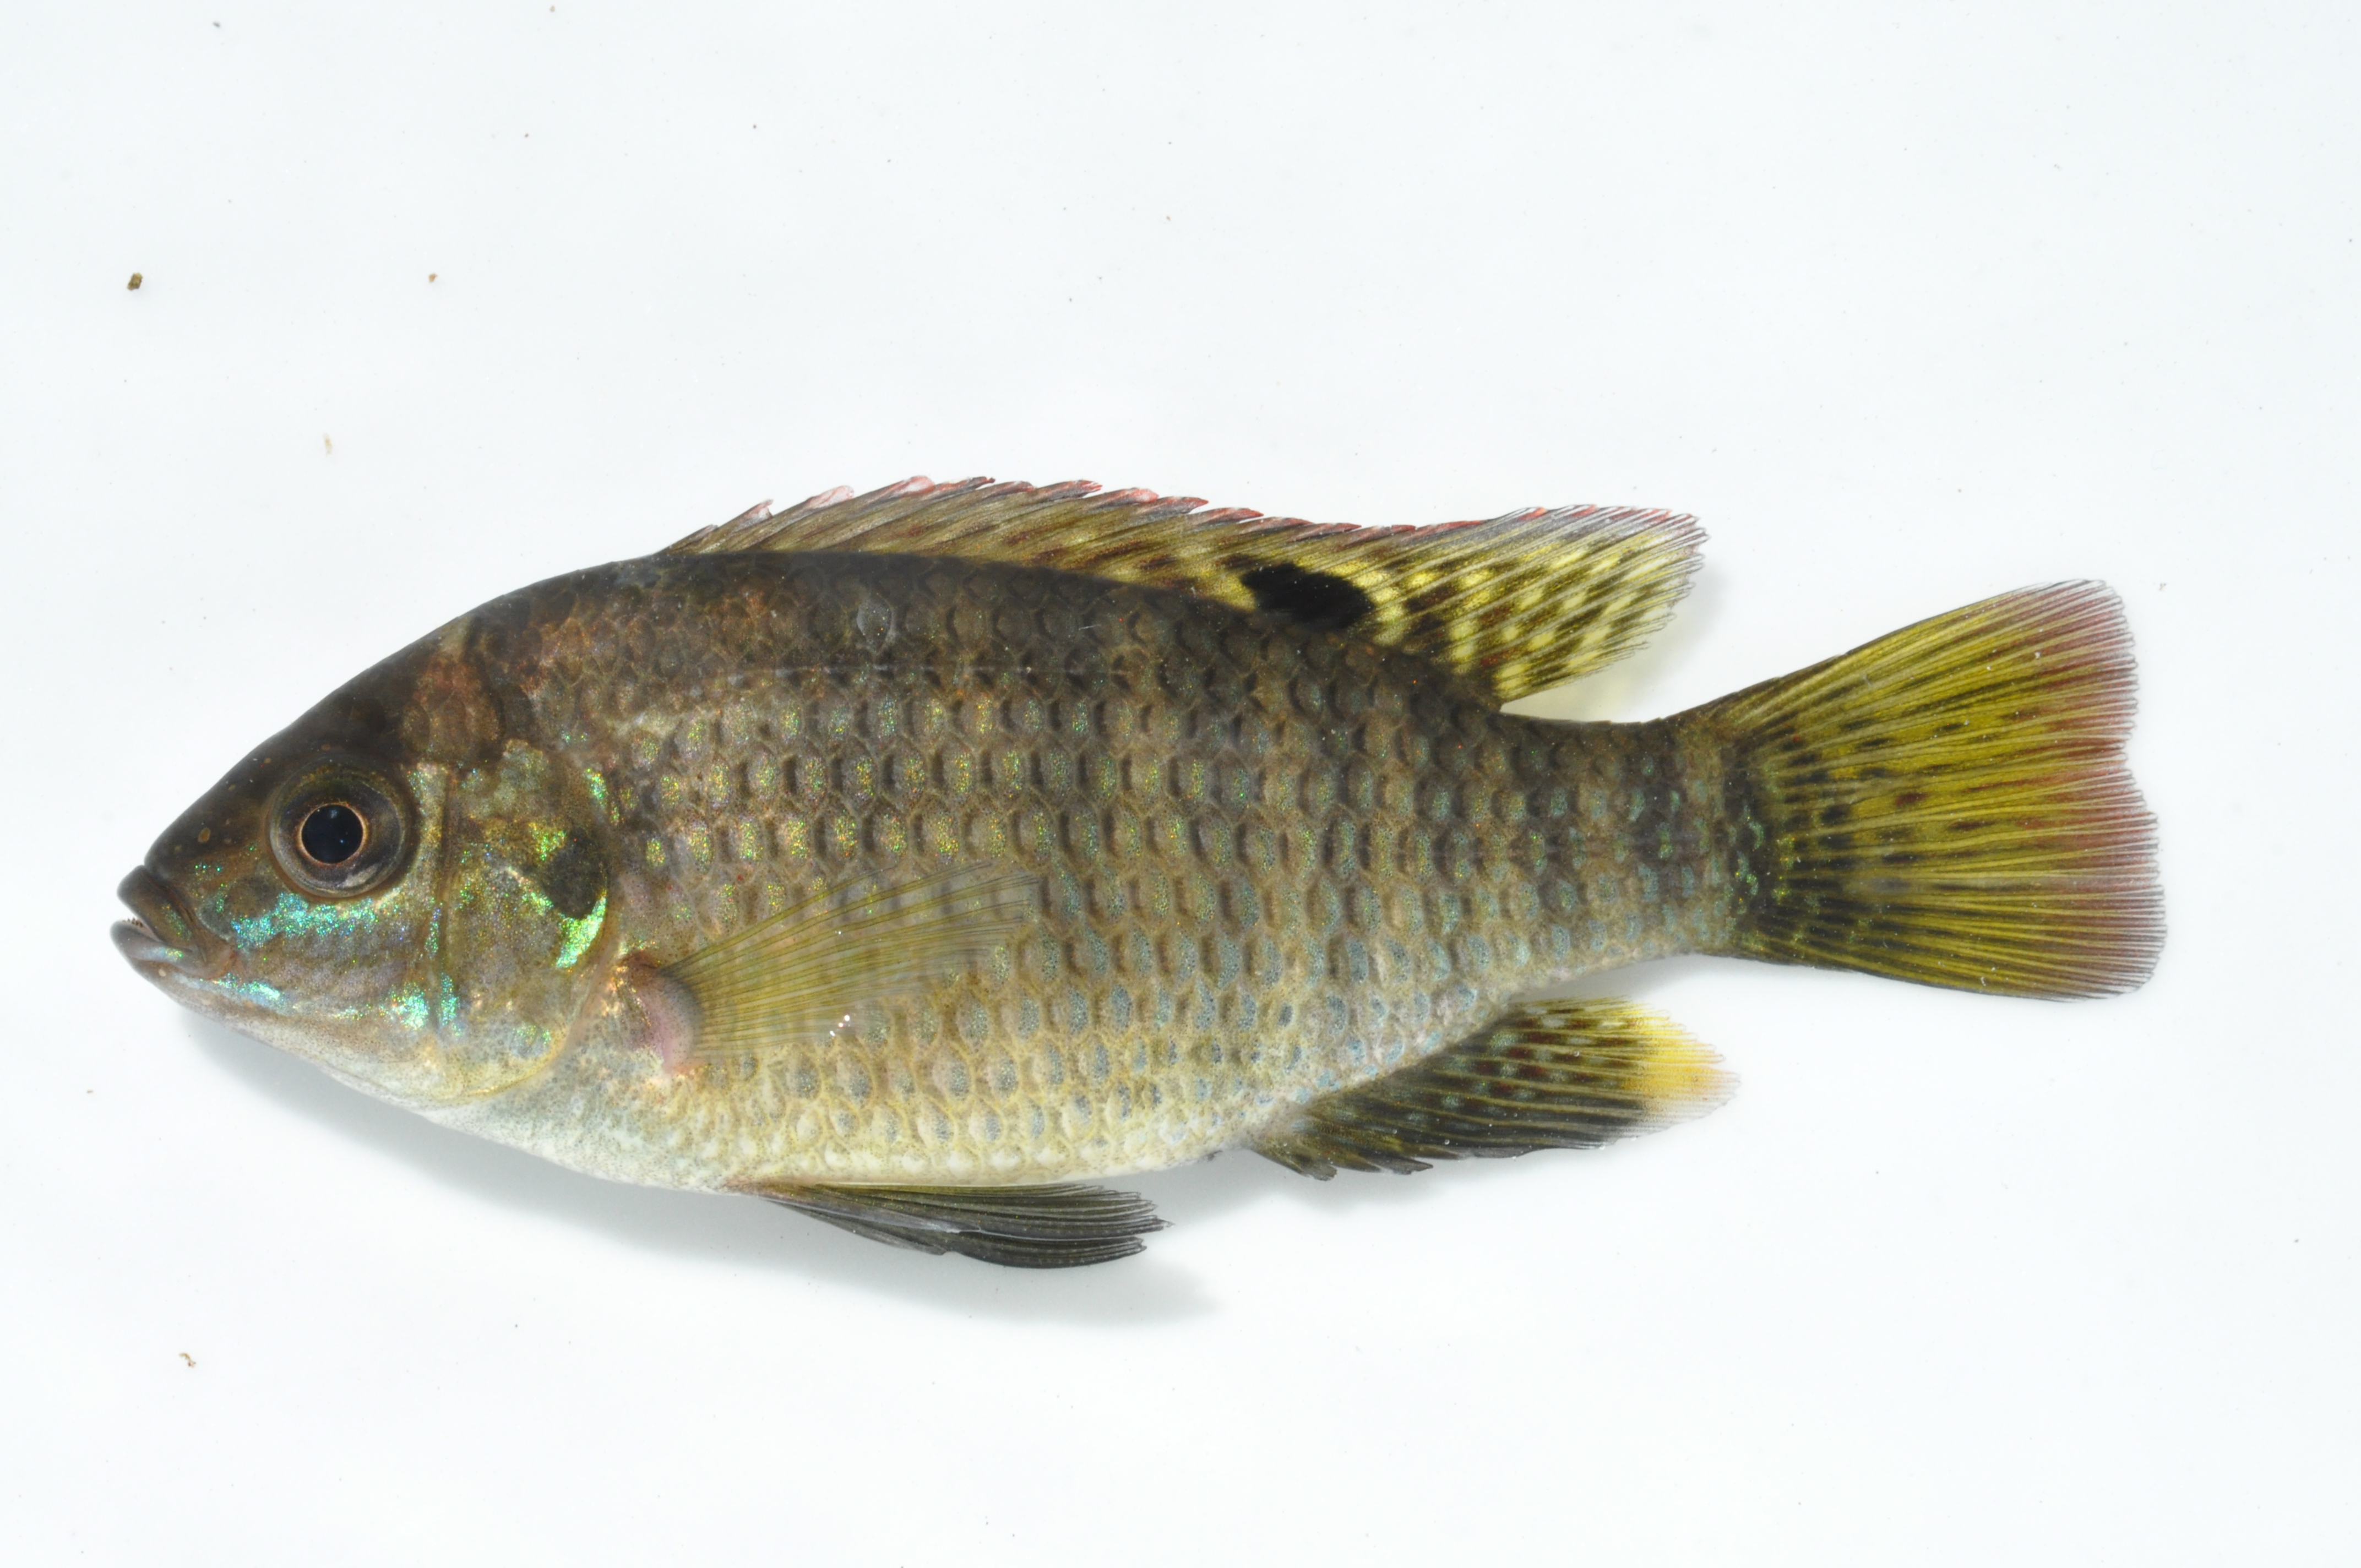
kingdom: Animalia
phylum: Chordata
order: Perciformes
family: Cichlidae
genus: Tilapia
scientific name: Tilapia sparrmanii
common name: Banded tilapia
